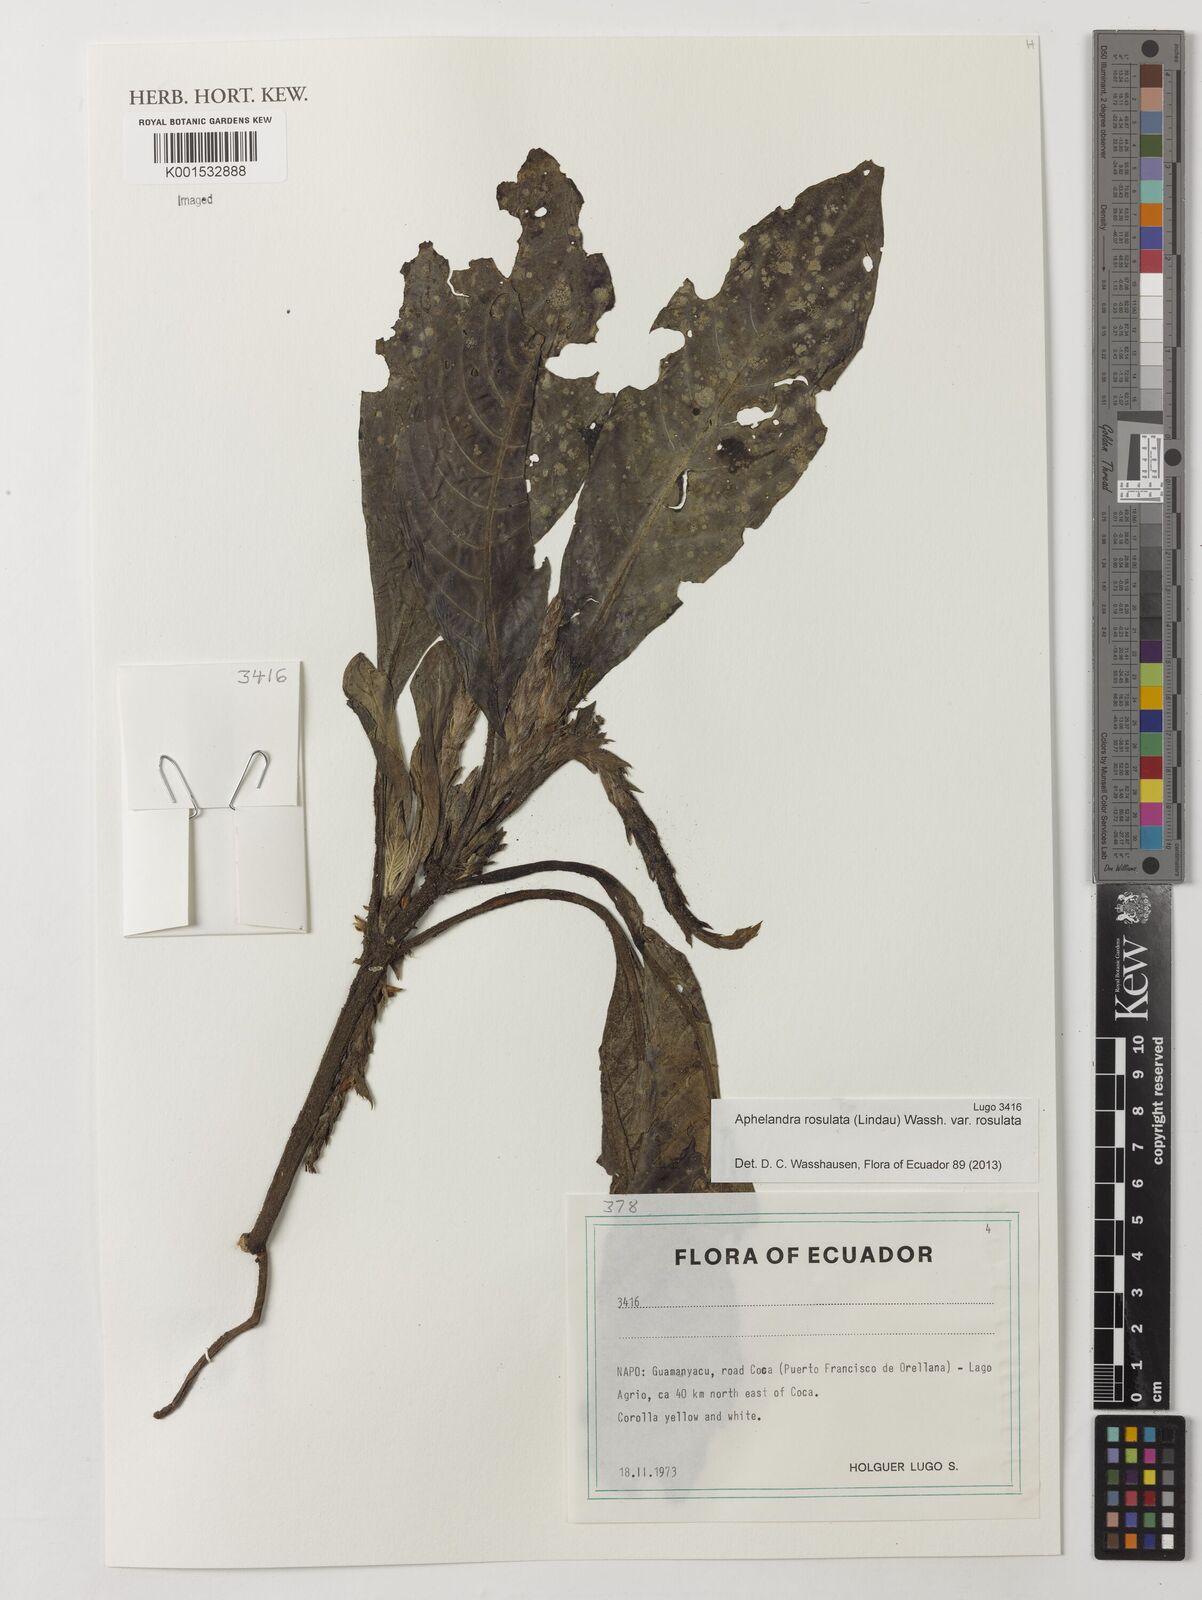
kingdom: Plantae
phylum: Tracheophyta
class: Magnoliopsida
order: Lamiales
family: Acanthaceae
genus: Aphelandra
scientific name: Aphelandra rosulata
